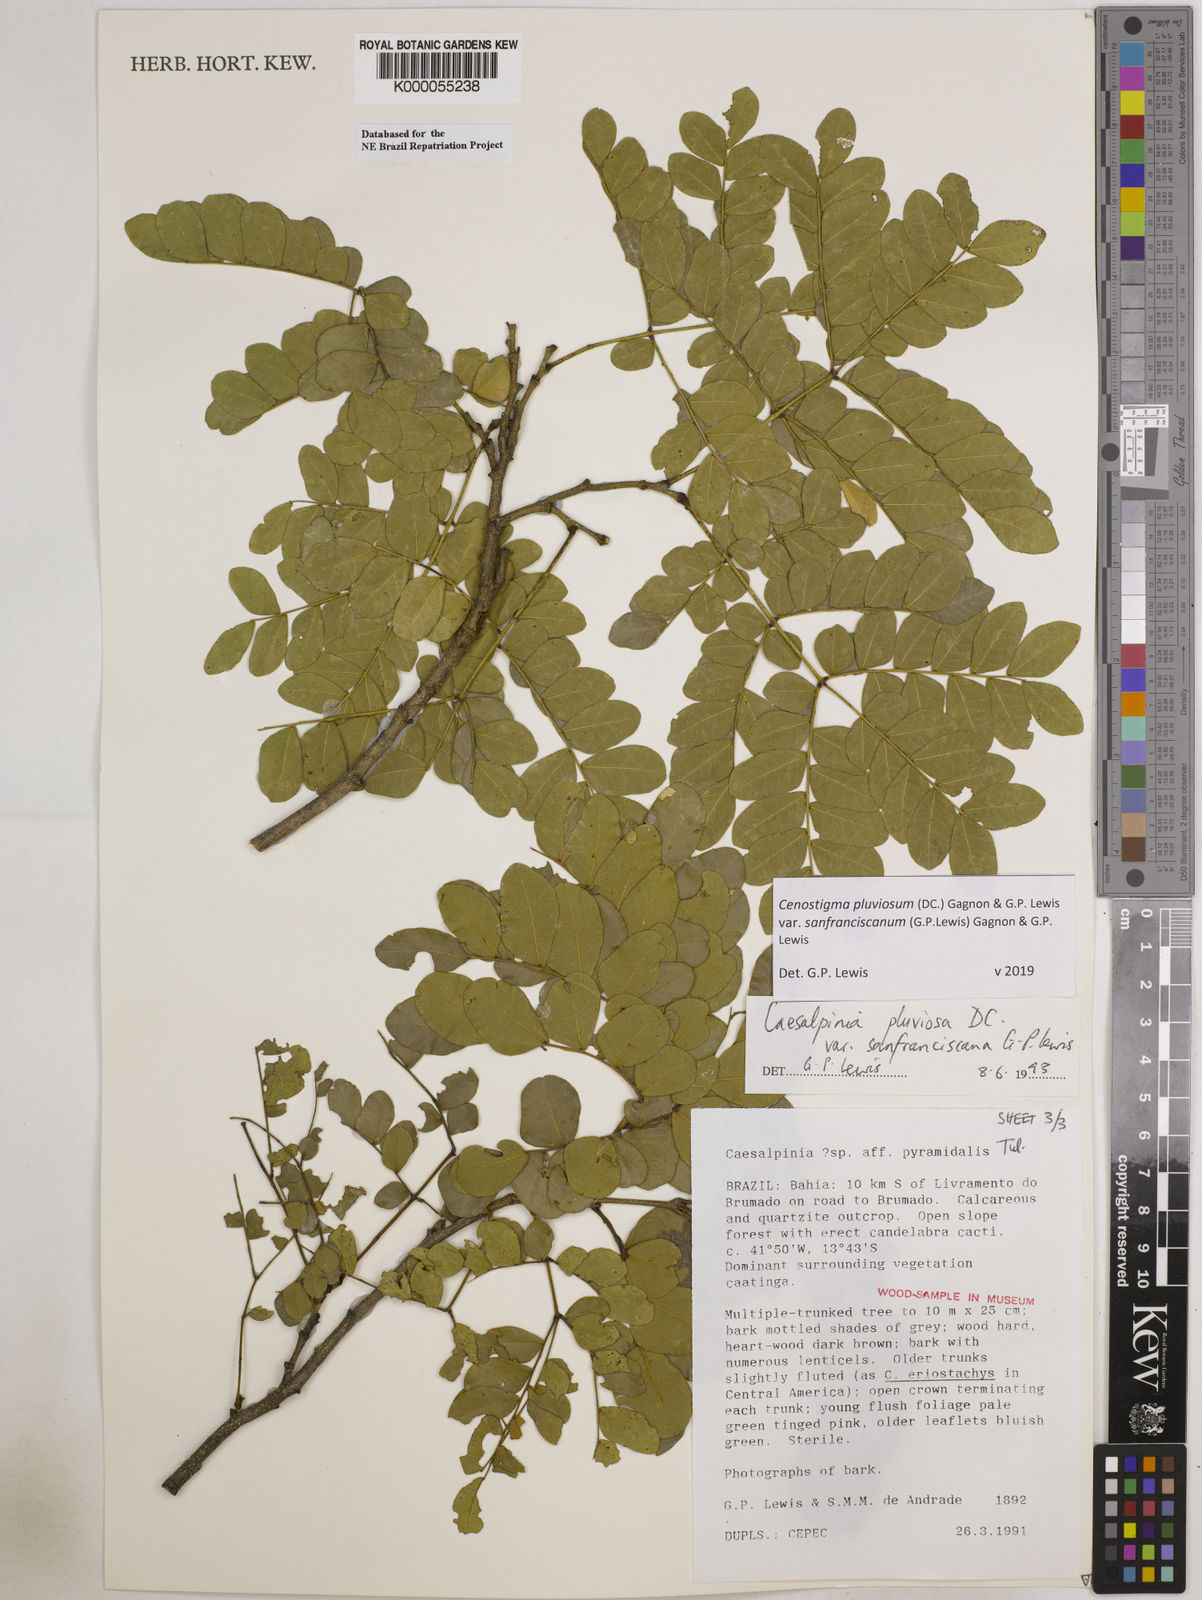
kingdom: Plantae
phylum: Tracheophyta
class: Magnoliopsida
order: Fabales
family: Fabaceae
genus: Cenostigma
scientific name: Cenostigma pluviosum
